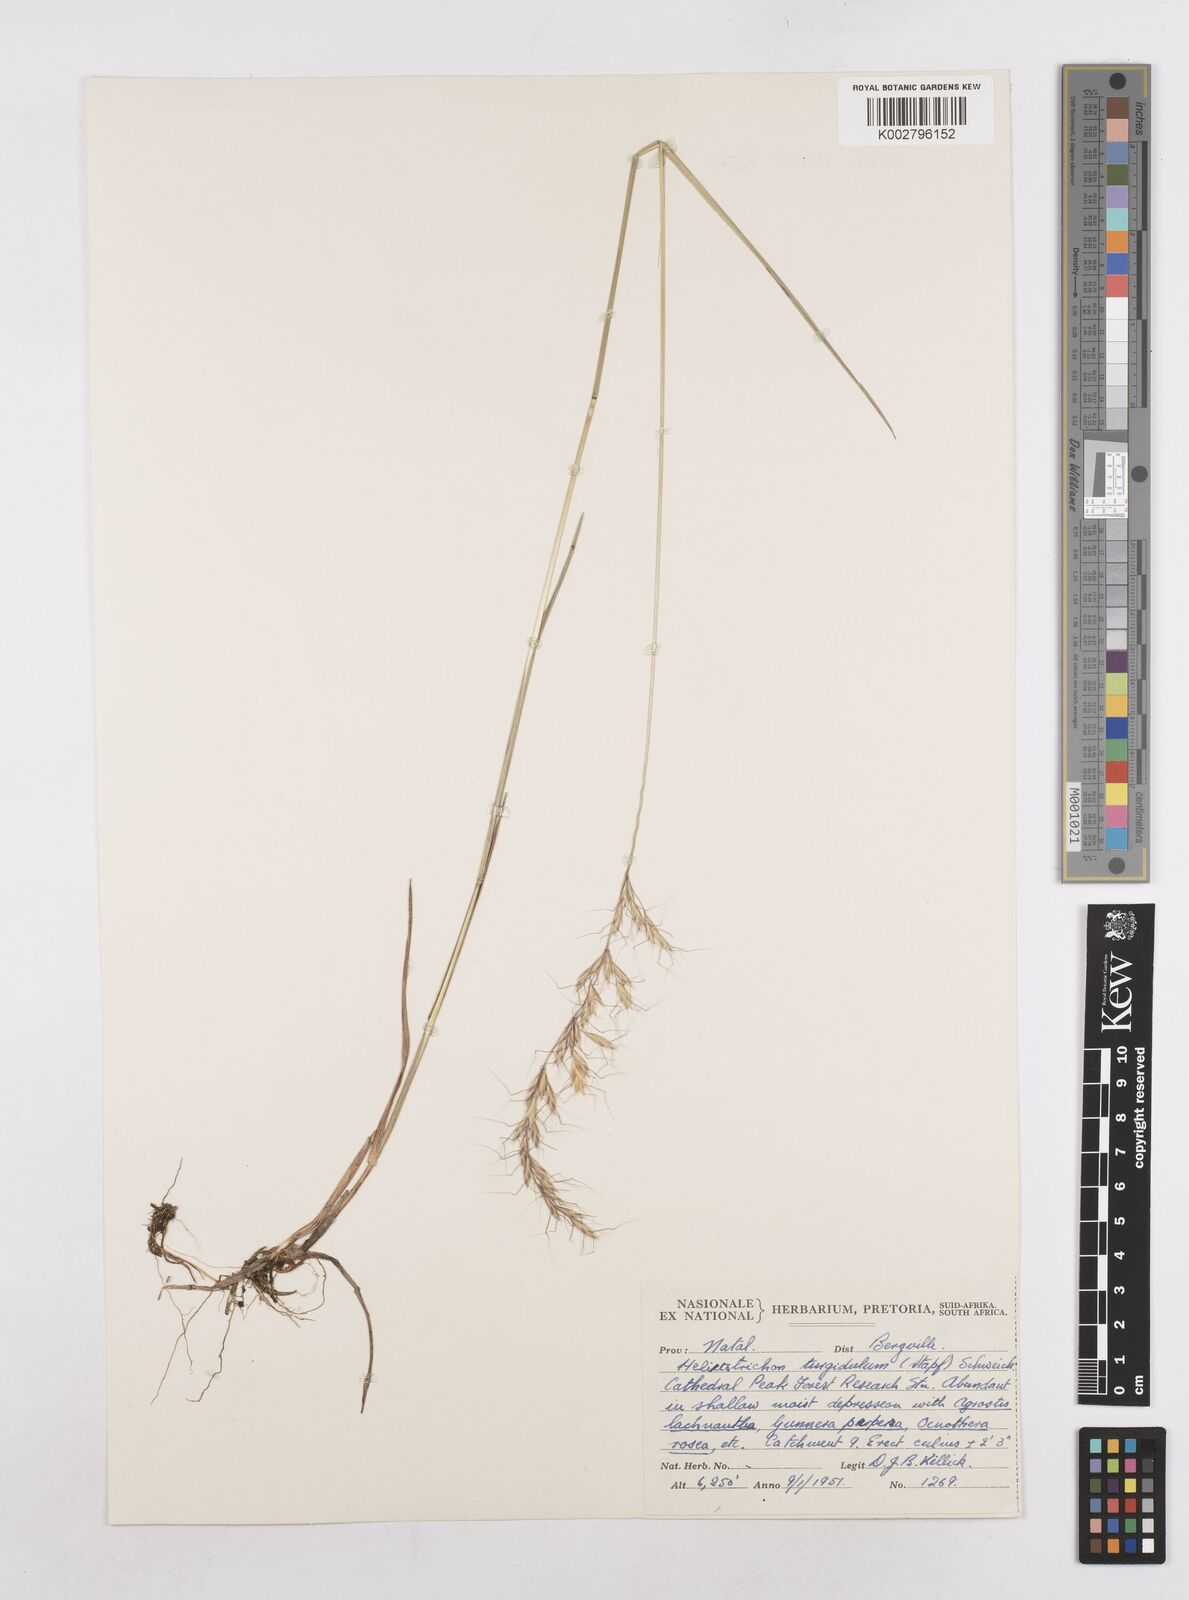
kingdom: Plantae
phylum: Tracheophyta
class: Liliopsida
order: Poales
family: Poaceae
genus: Trisetopsis
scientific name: Trisetopsis imberbis
